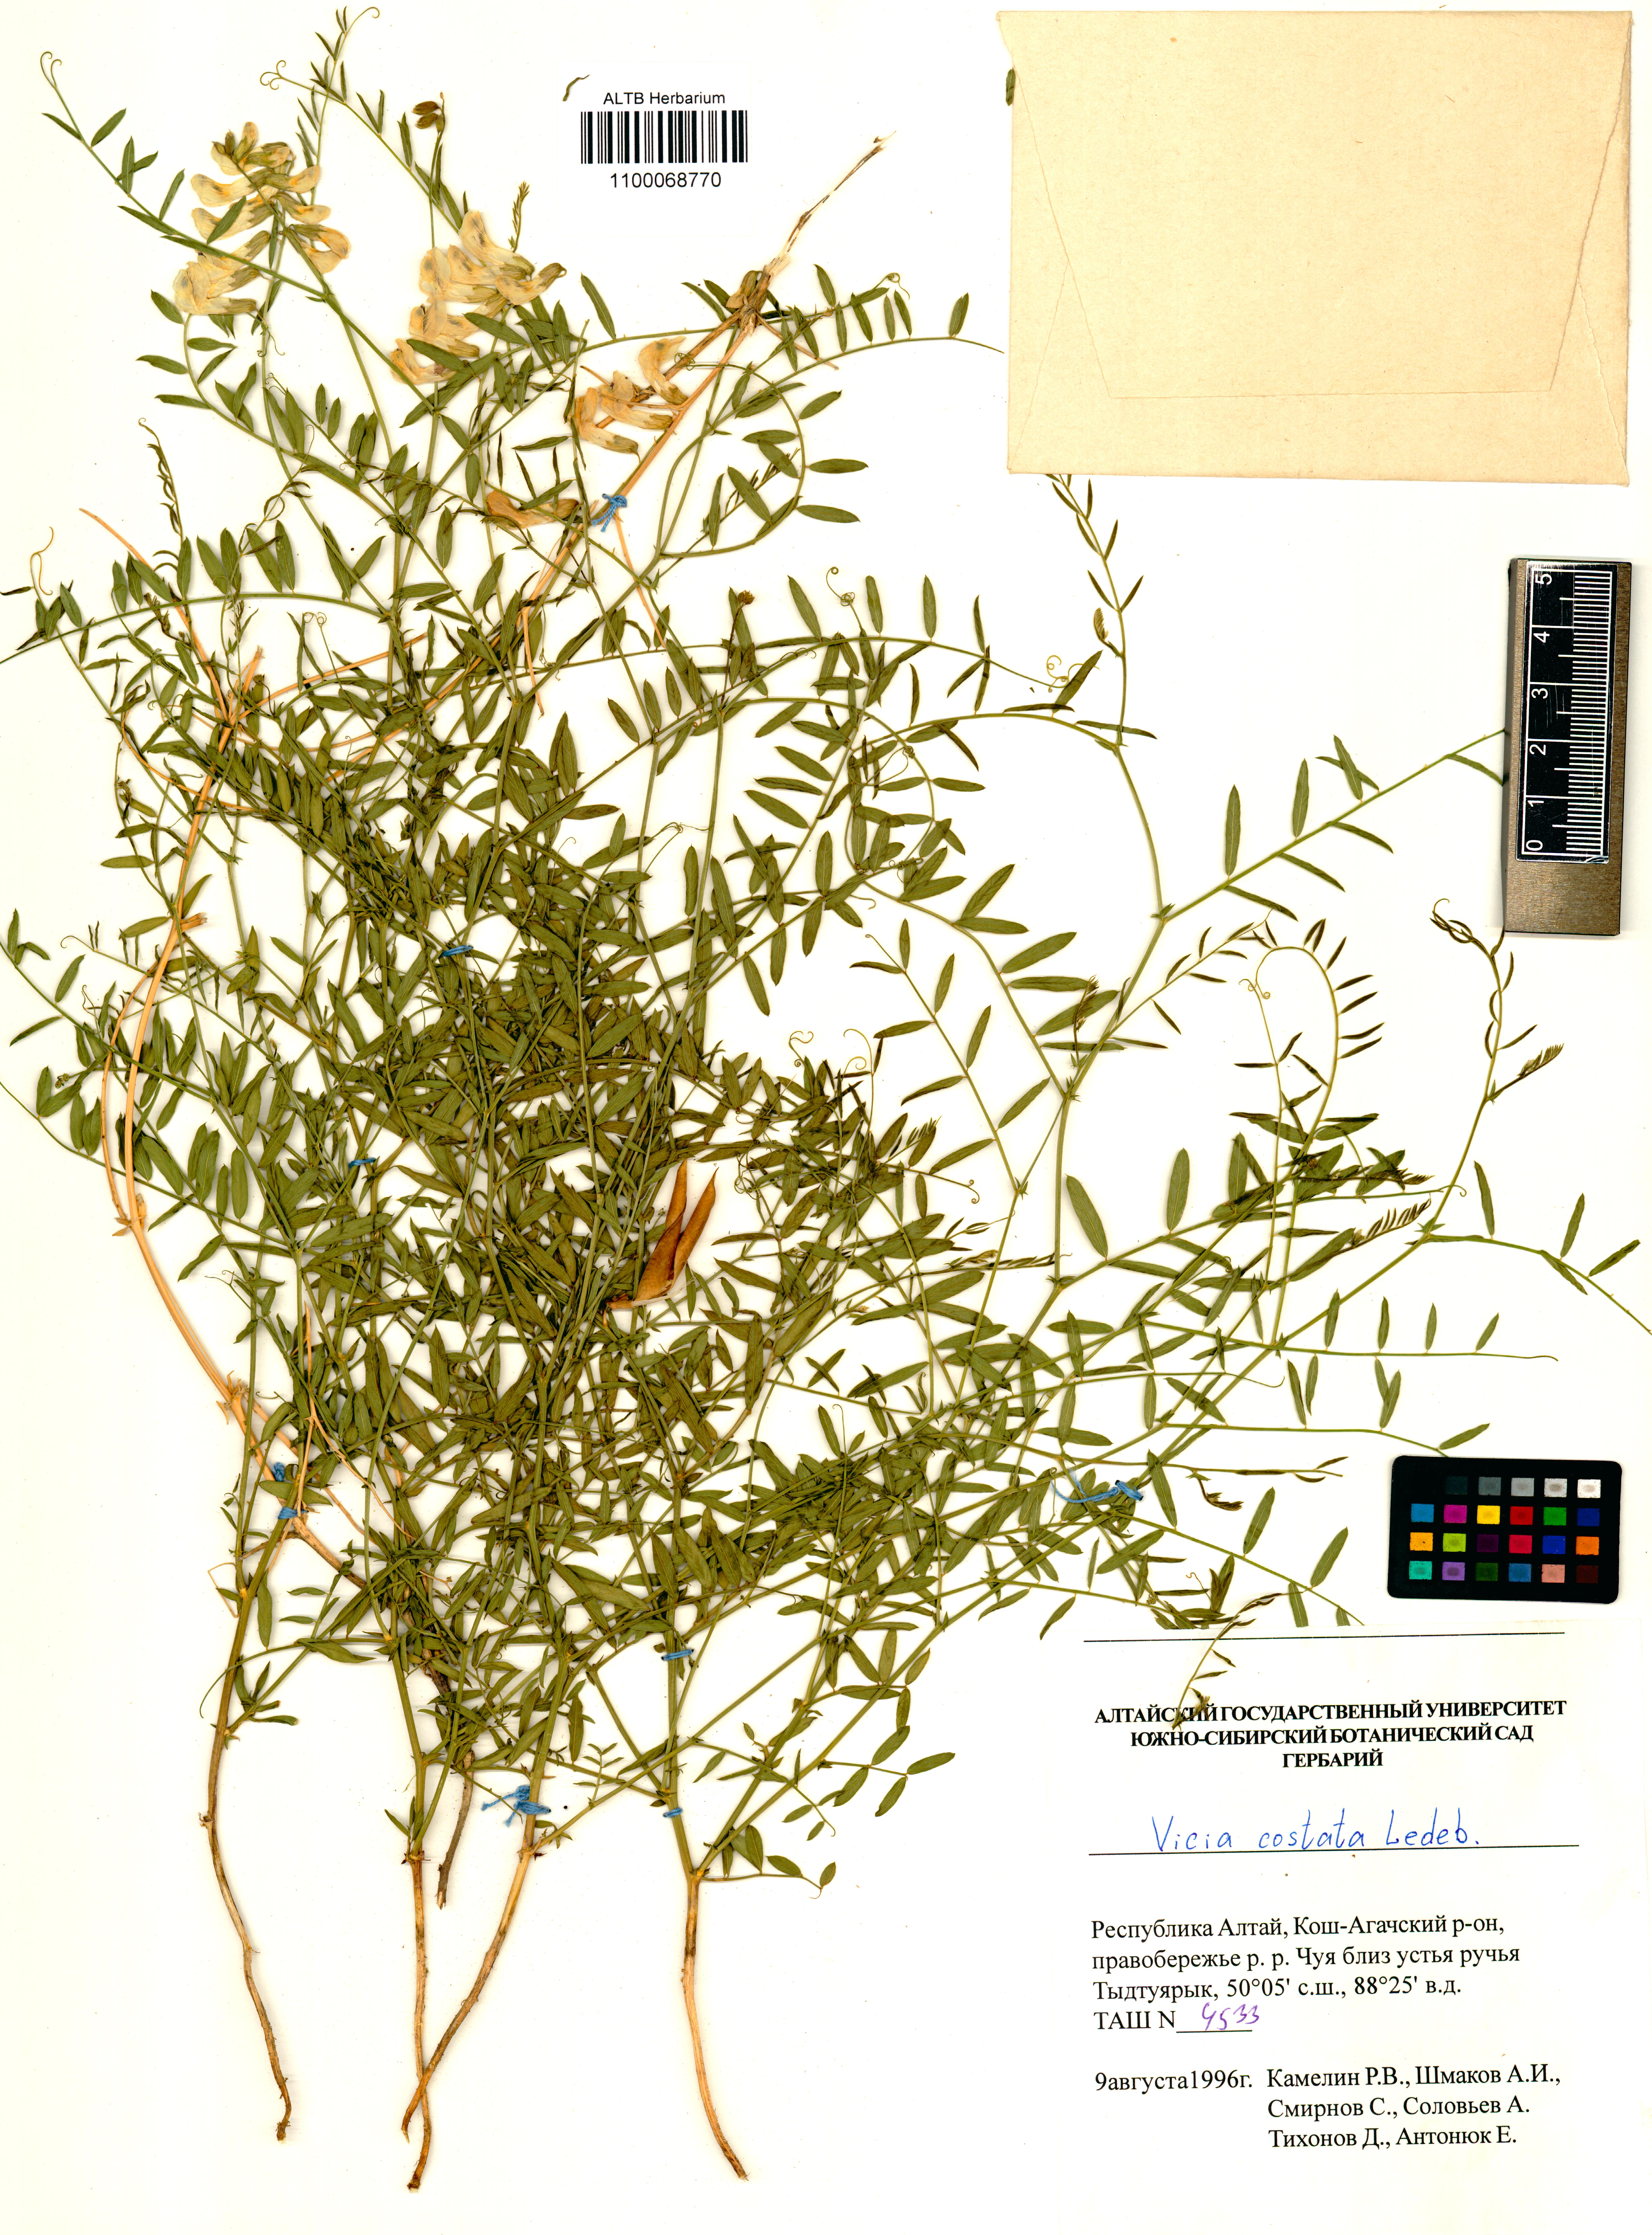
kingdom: Plantae
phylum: Tracheophyta
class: Magnoliopsida
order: Fabales
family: Fabaceae
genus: Vicia
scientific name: Vicia costata
